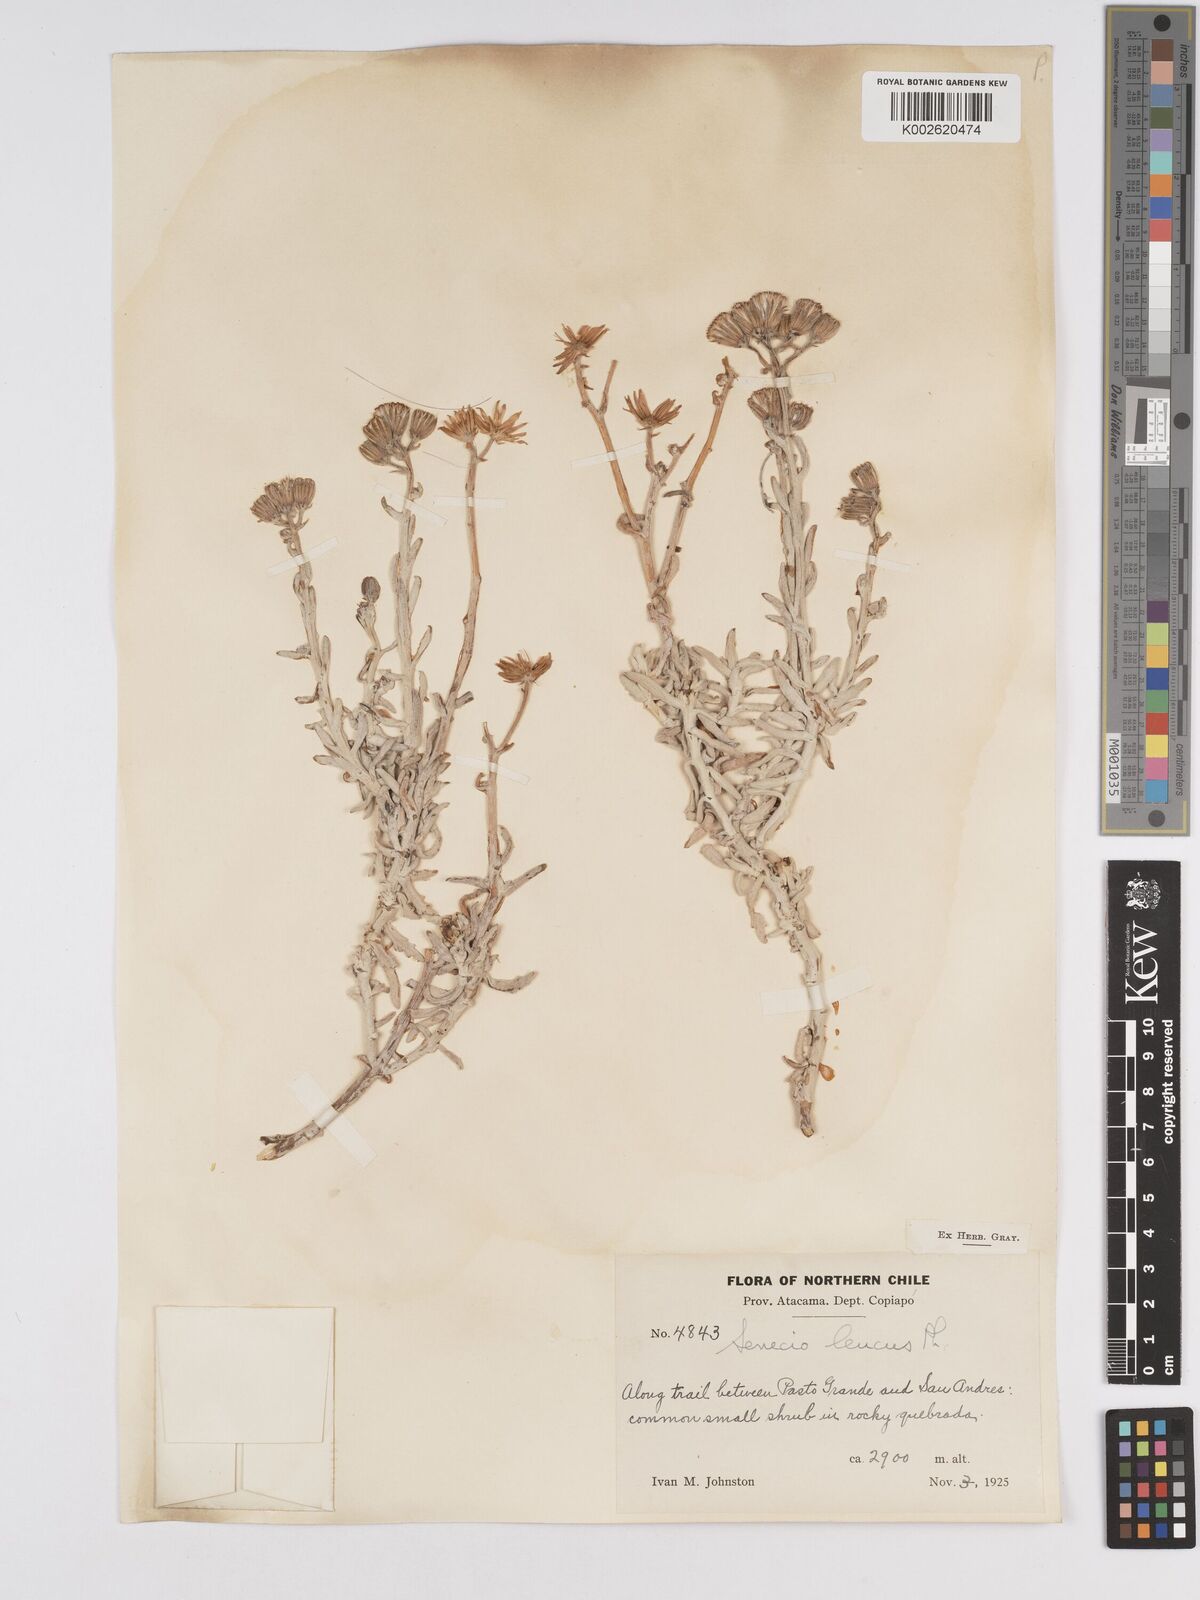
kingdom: Plantae
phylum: Tracheophyta
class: Magnoliopsida
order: Asterales
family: Asteraceae
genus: Senecio
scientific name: Senecio leucus
